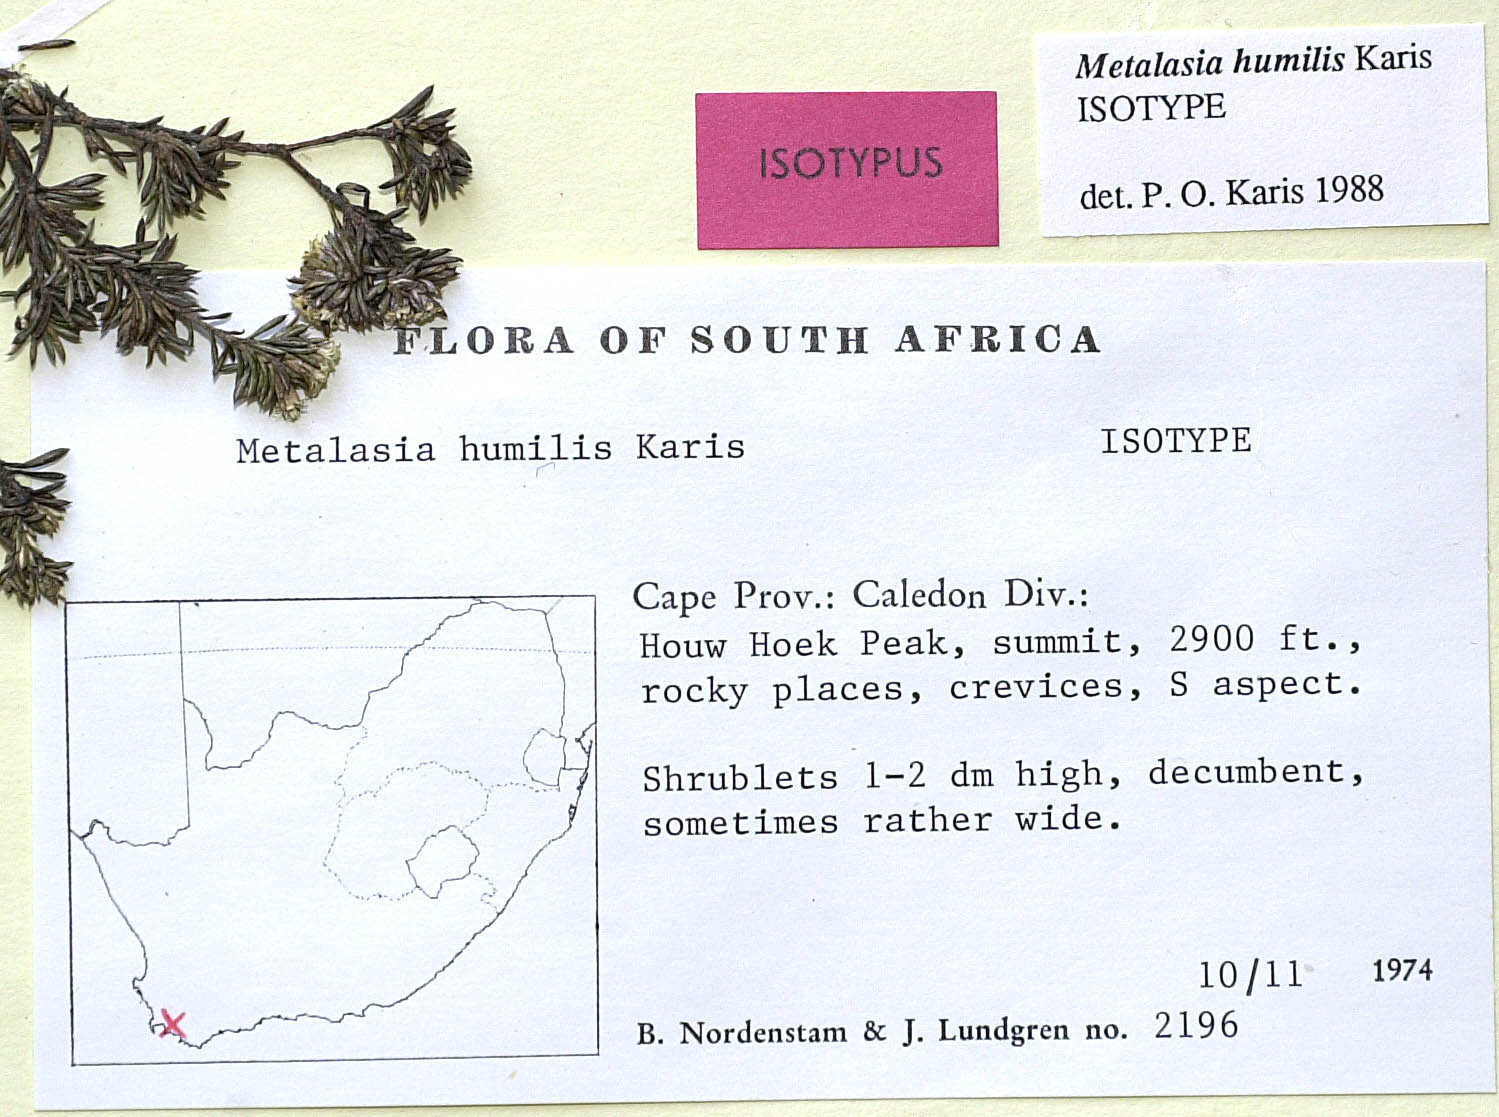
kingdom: Plantae
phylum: Tracheophyta
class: Magnoliopsida
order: Asterales
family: Asteraceae
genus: Metalasia
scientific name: Metalasia humilis
